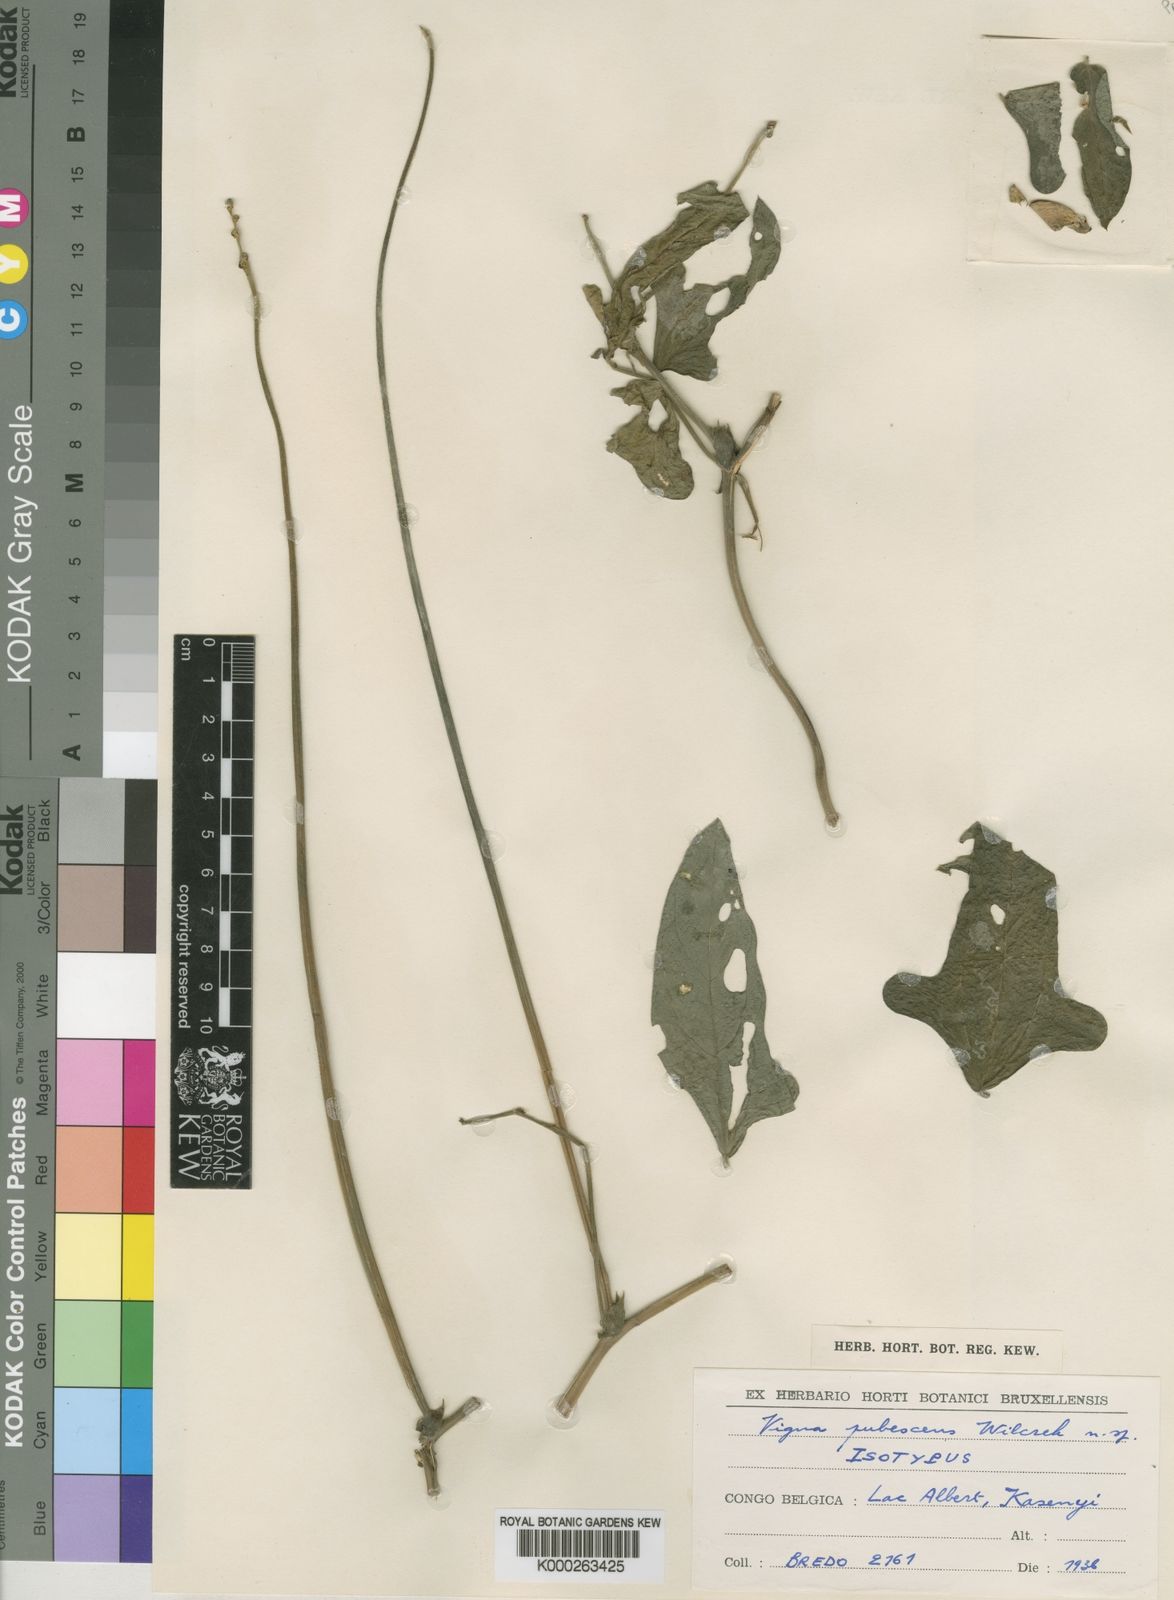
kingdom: Plantae
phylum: Tracheophyta
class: Magnoliopsida
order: Fabales
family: Fabaceae
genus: Vigna
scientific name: Vigna unguiculata
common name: Cowpea
